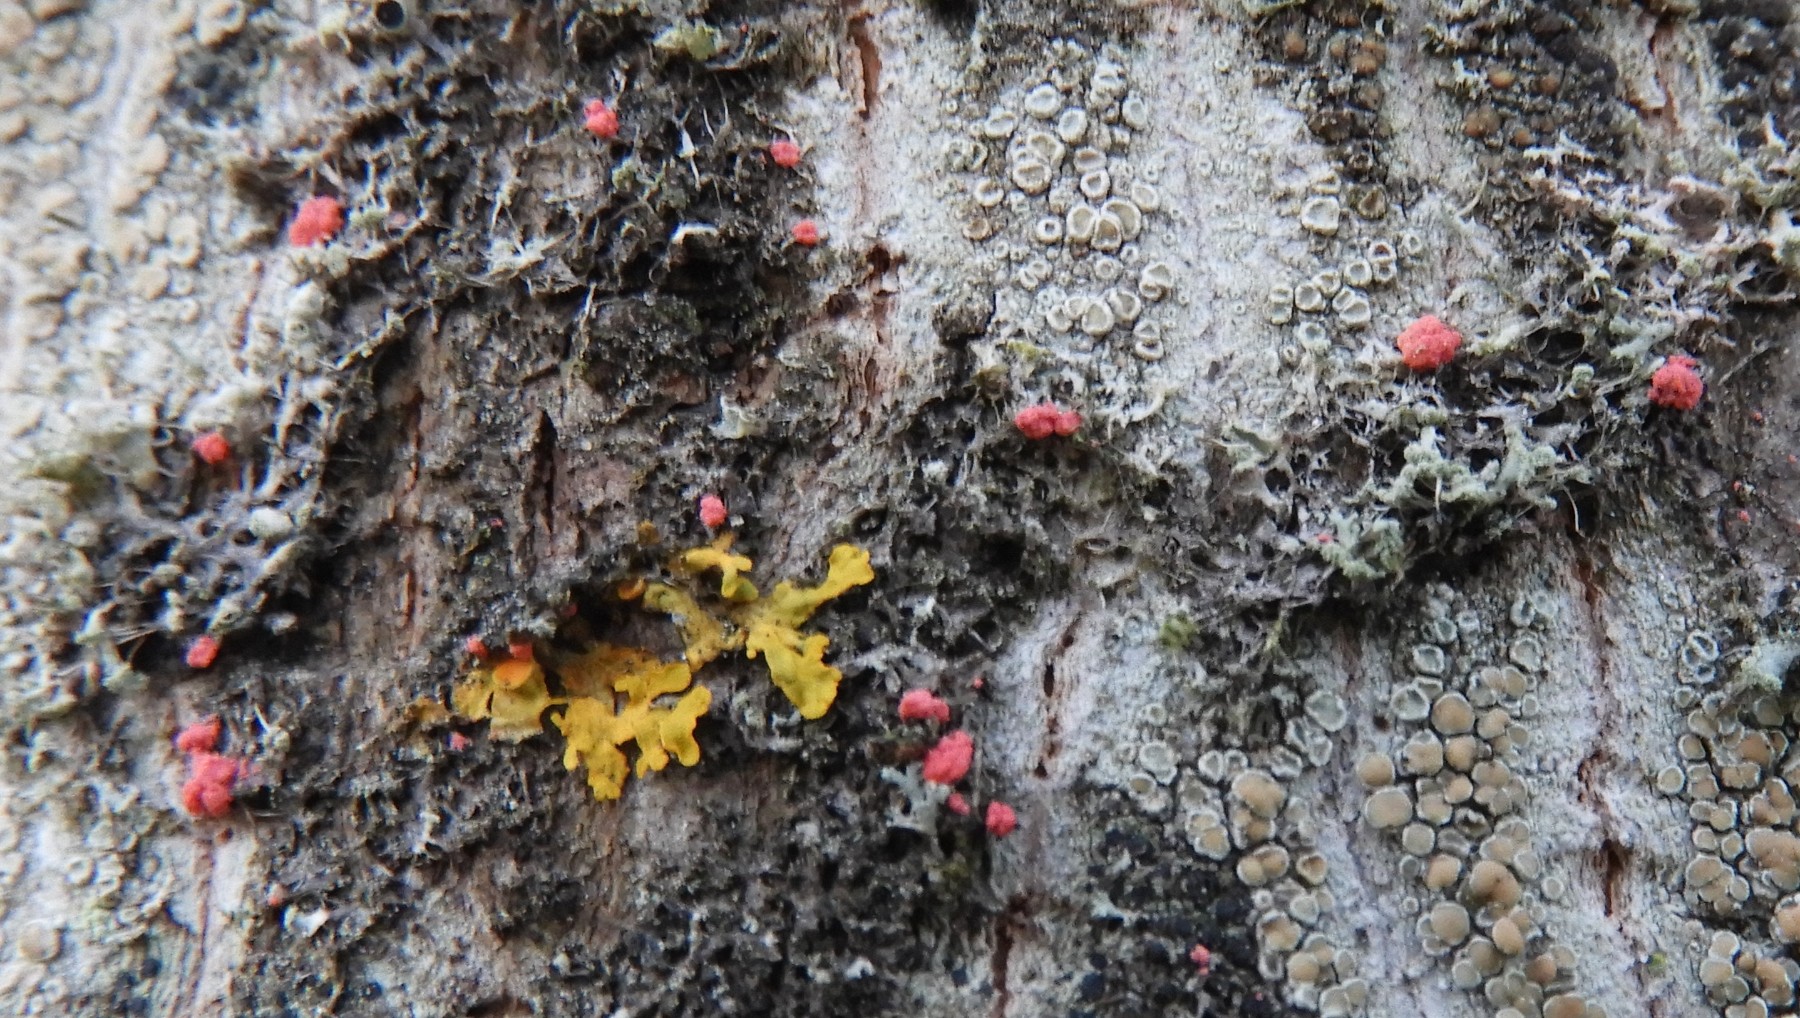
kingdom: Fungi
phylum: Ascomycota
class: Sordariomycetes
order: Hypocreales
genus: Illosporiopsis
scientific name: Illosporiopsis christiansenii
